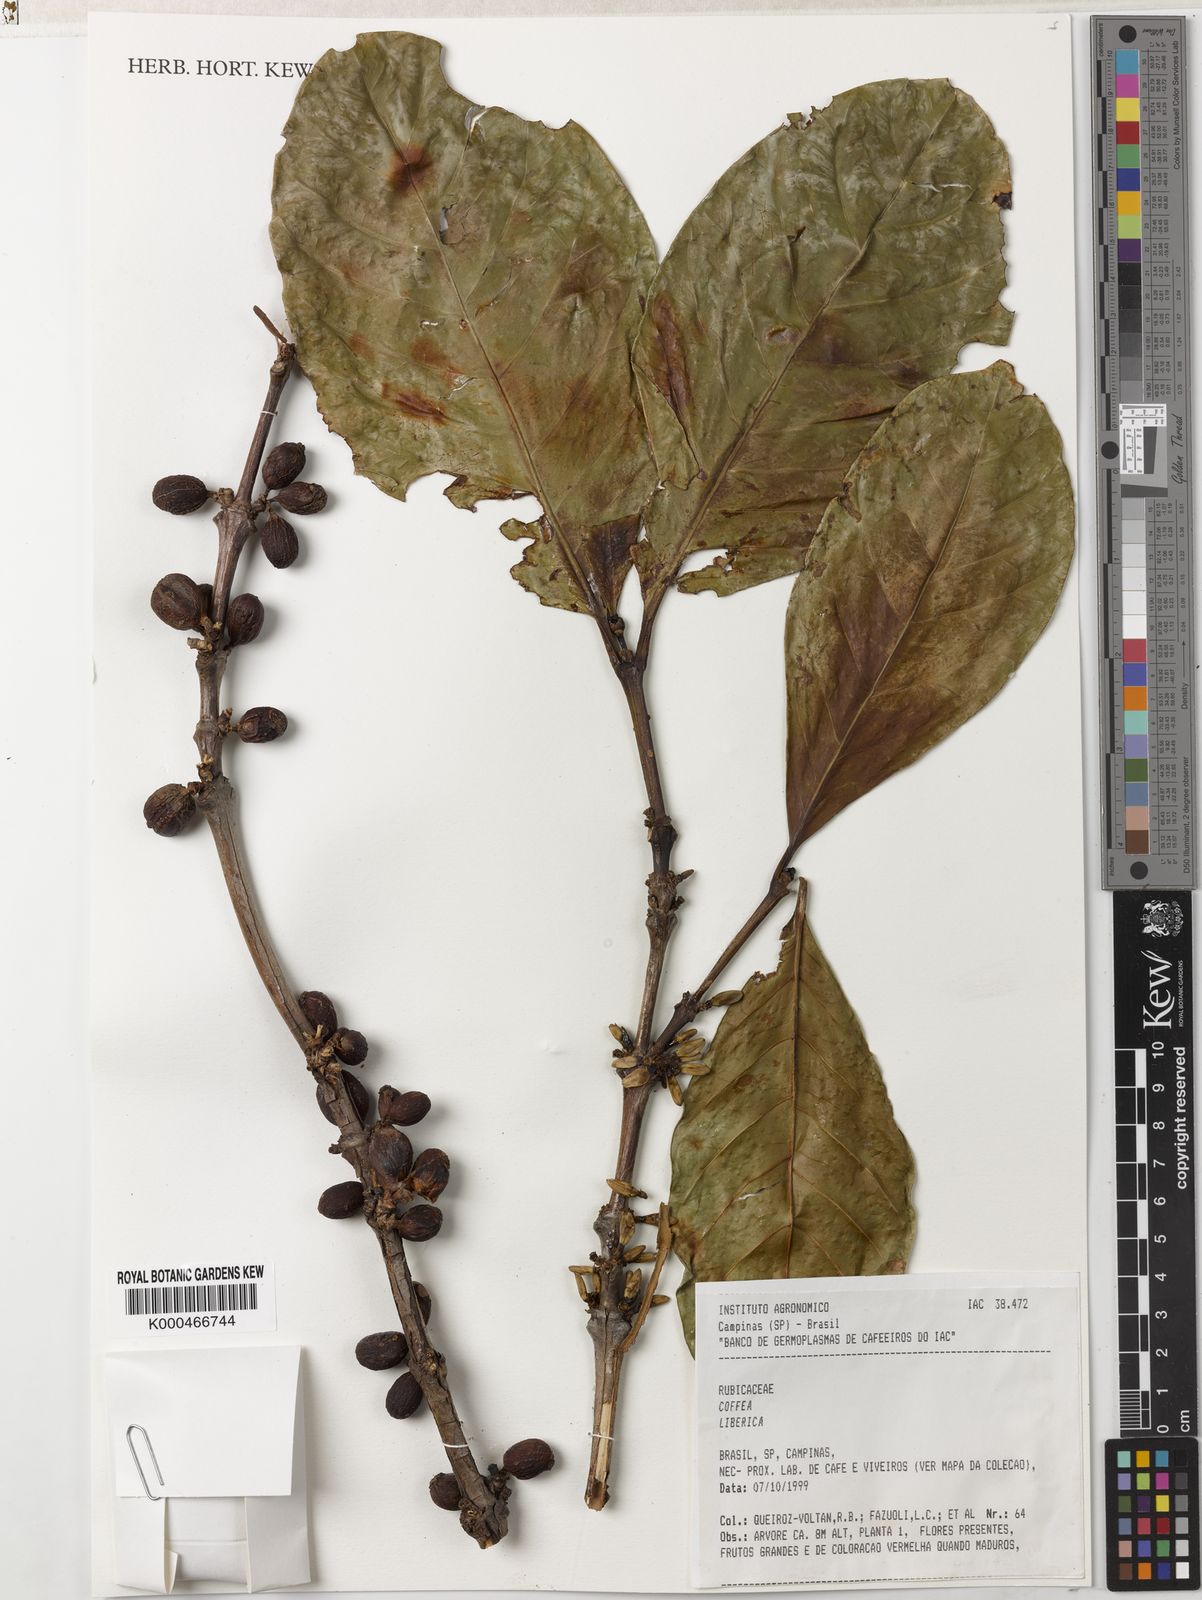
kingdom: Plantae
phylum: Tracheophyta
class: Magnoliopsida
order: Gentianales
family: Rubiaceae
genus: Coffea
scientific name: Coffea liberica
